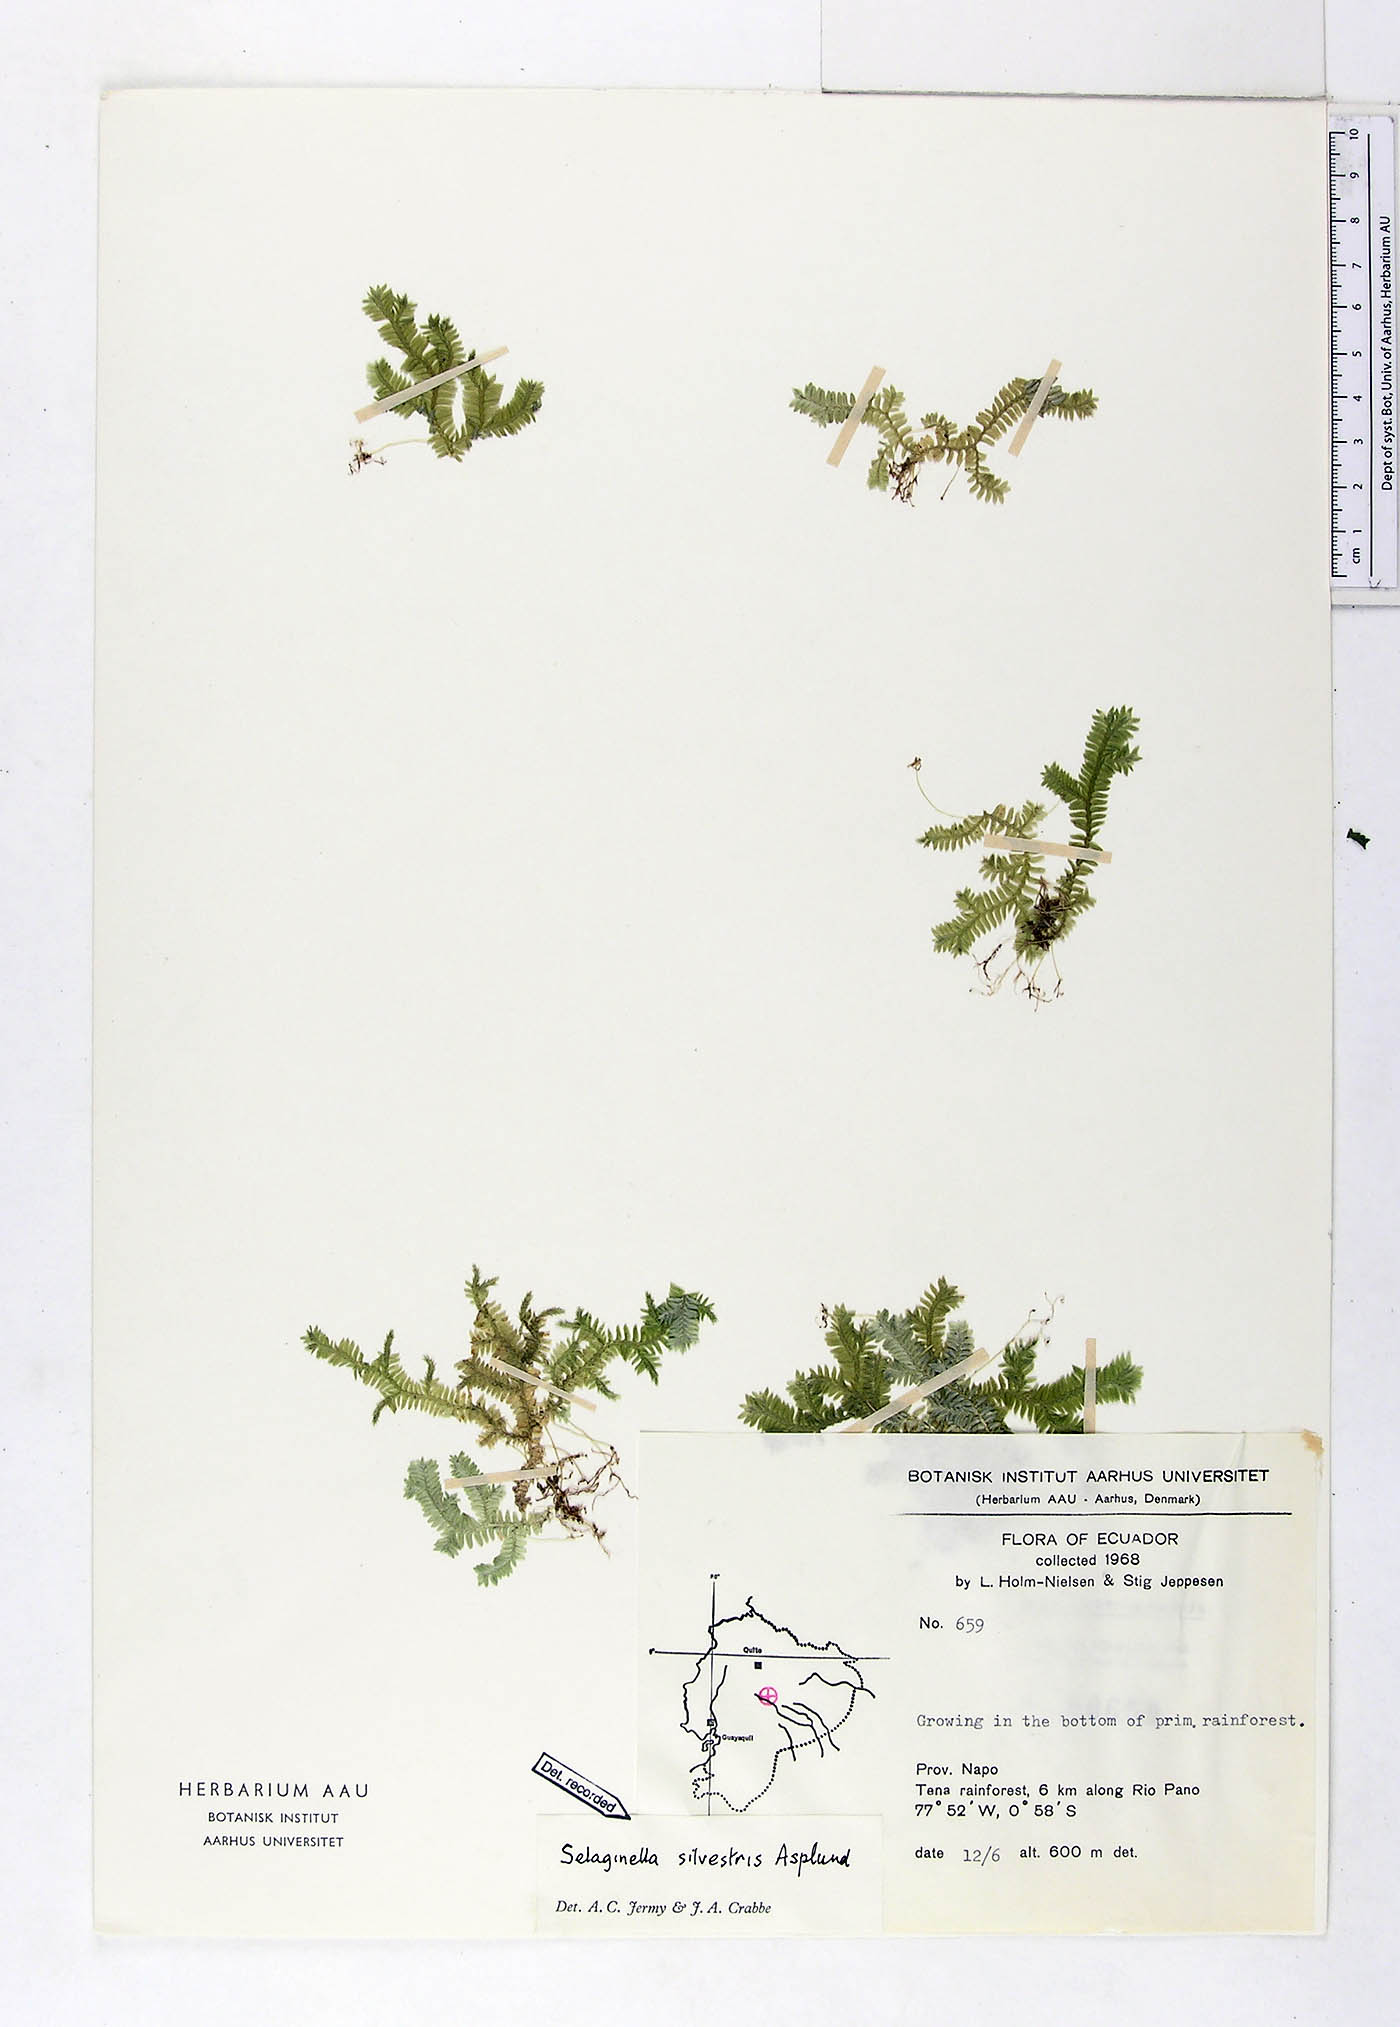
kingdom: Plantae
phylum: Tracheophyta
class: Lycopodiopsida
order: Selaginellales
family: Selaginellaceae
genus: Selaginella
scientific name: Selaginella silvestris
